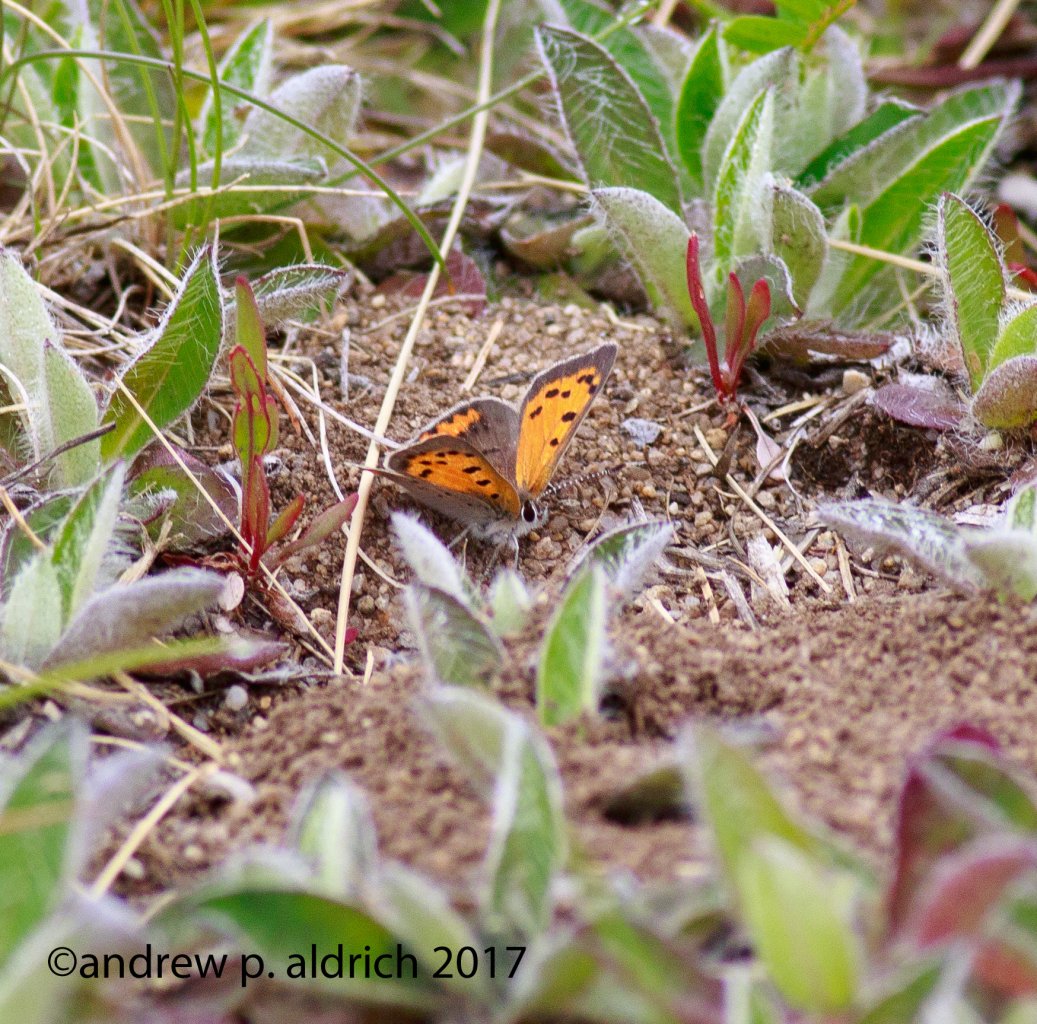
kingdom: Animalia
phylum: Arthropoda
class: Insecta
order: Lepidoptera
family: Lycaenidae
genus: Lycaena
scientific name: Lycaena phlaeas
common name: American Copper
